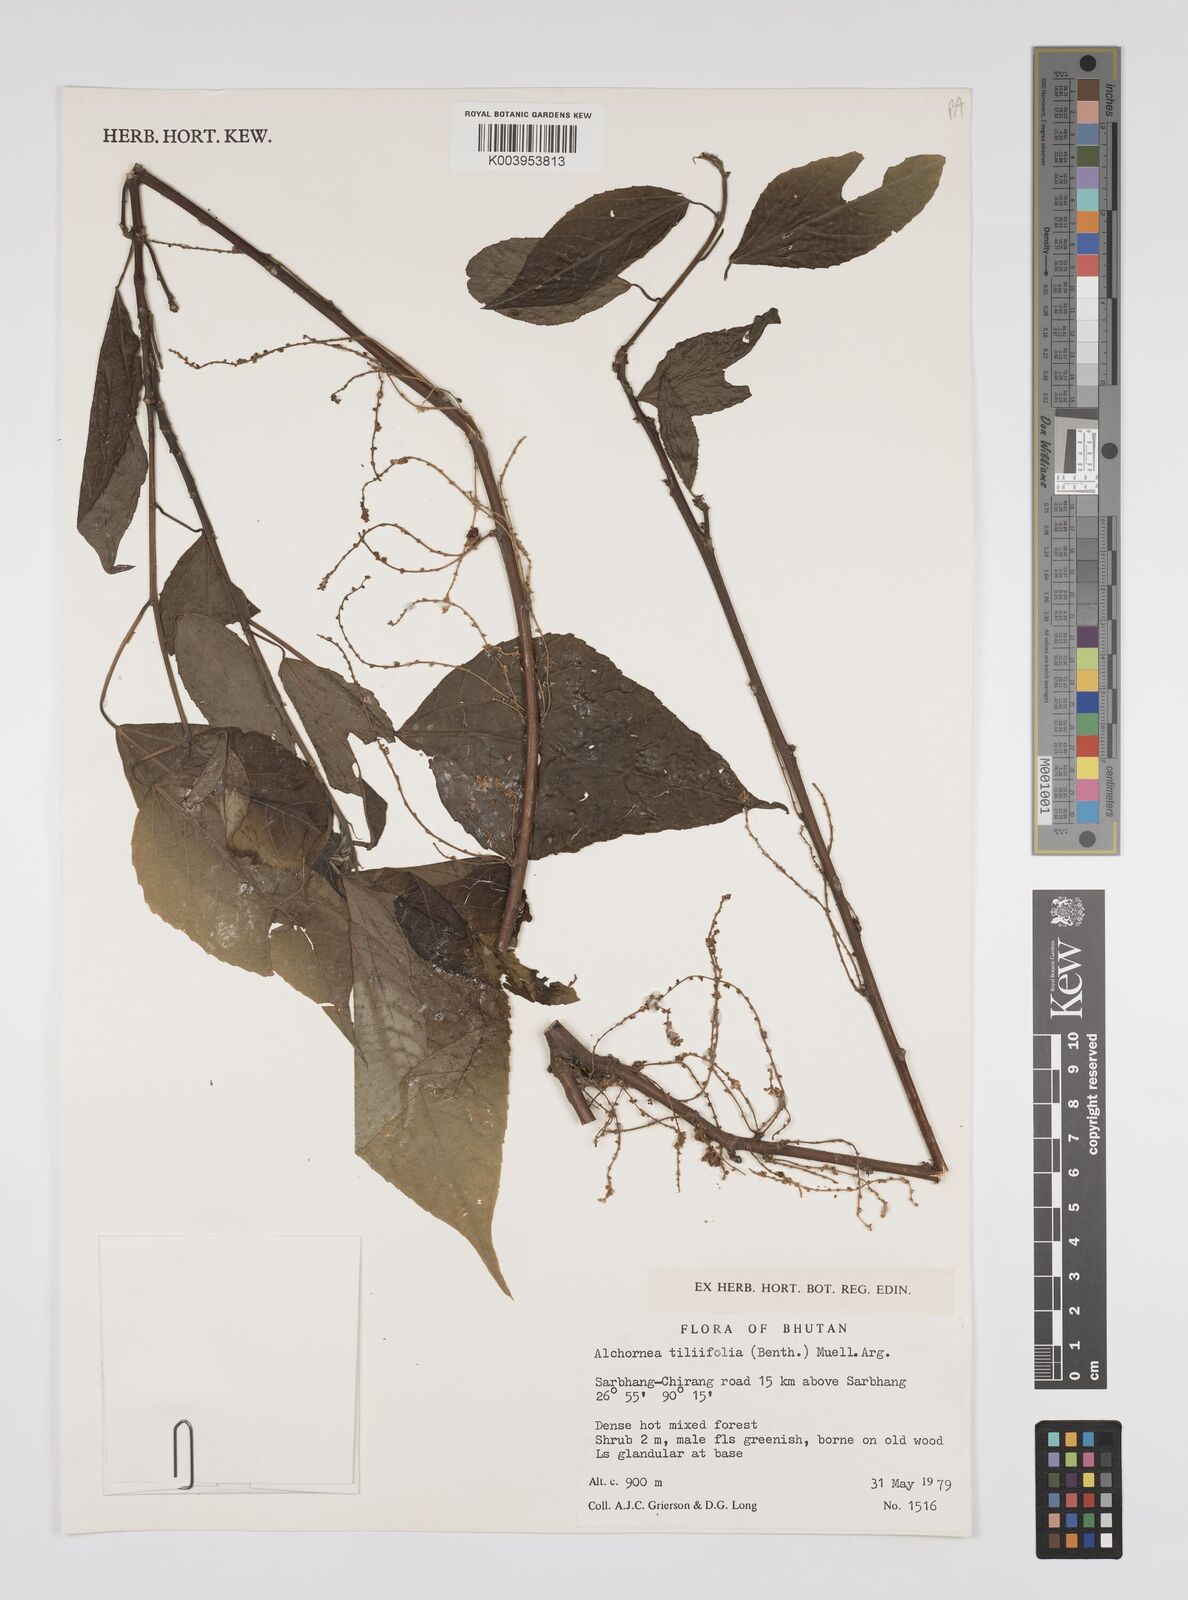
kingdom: Plantae
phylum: Tracheophyta
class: Magnoliopsida
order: Malpighiales
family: Euphorbiaceae
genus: Alchornea
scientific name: Alchornea tiliifolia
